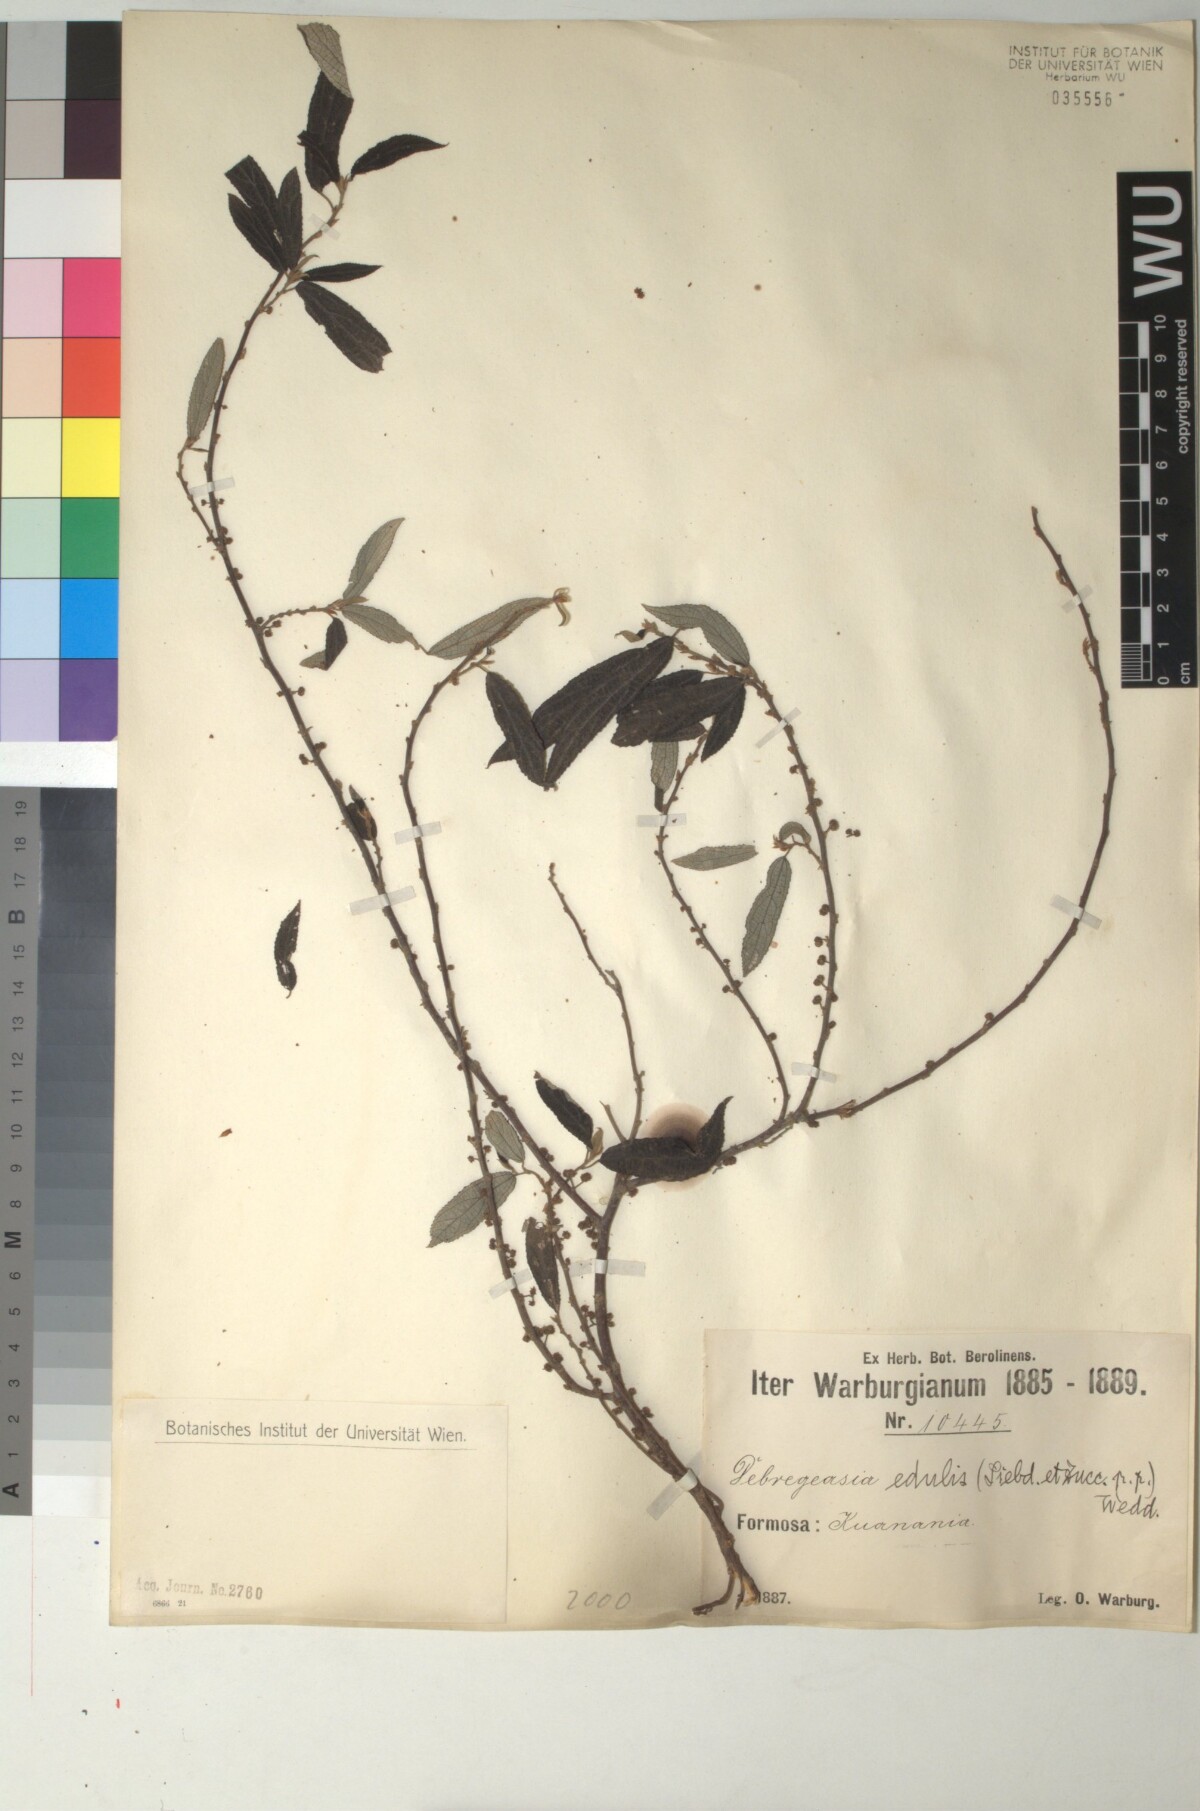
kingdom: Plantae
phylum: Tracheophyta
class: Magnoliopsida
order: Rosales
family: Urticaceae
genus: Debregeasia
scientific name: Debregeasia edulis
